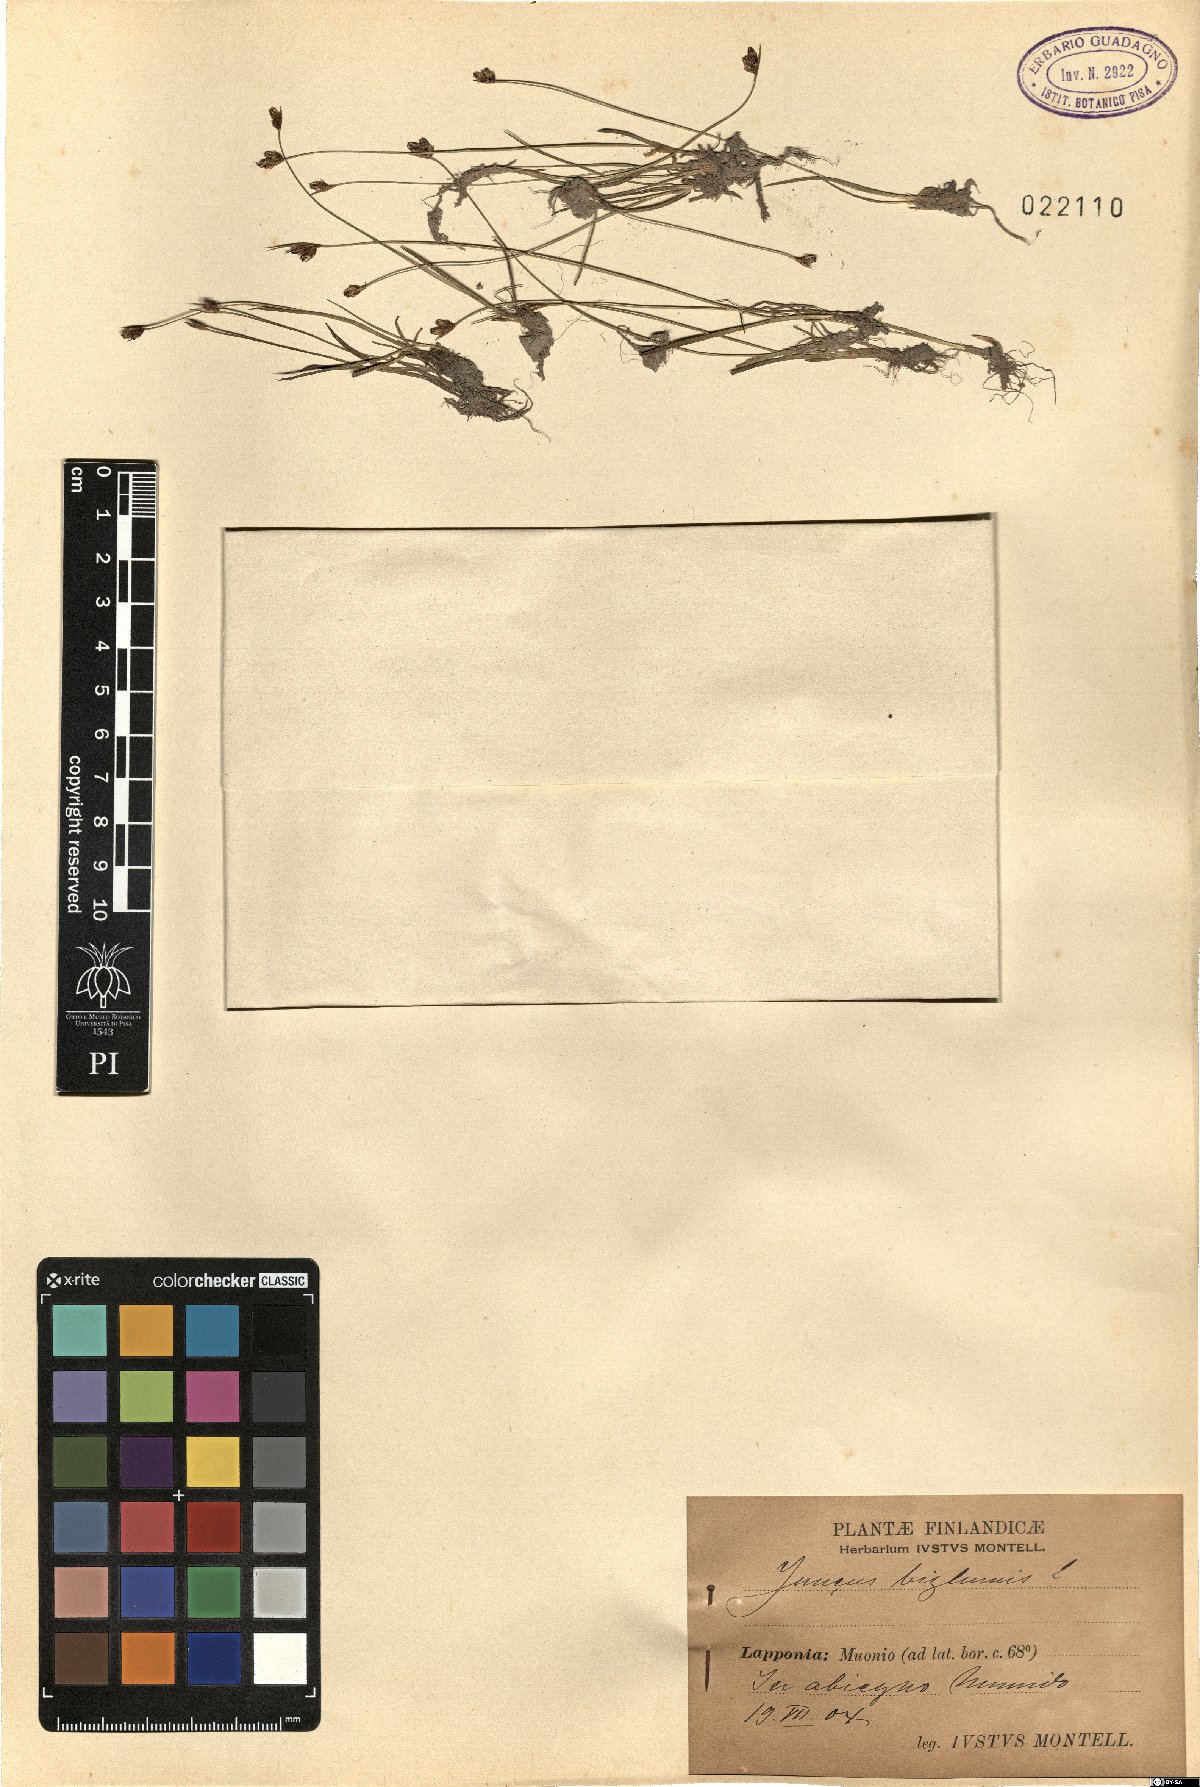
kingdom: Plantae
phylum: Tracheophyta
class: Liliopsida
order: Poales
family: Juncaceae
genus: Juncus
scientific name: Juncus biglumis
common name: Two-flowered rush
